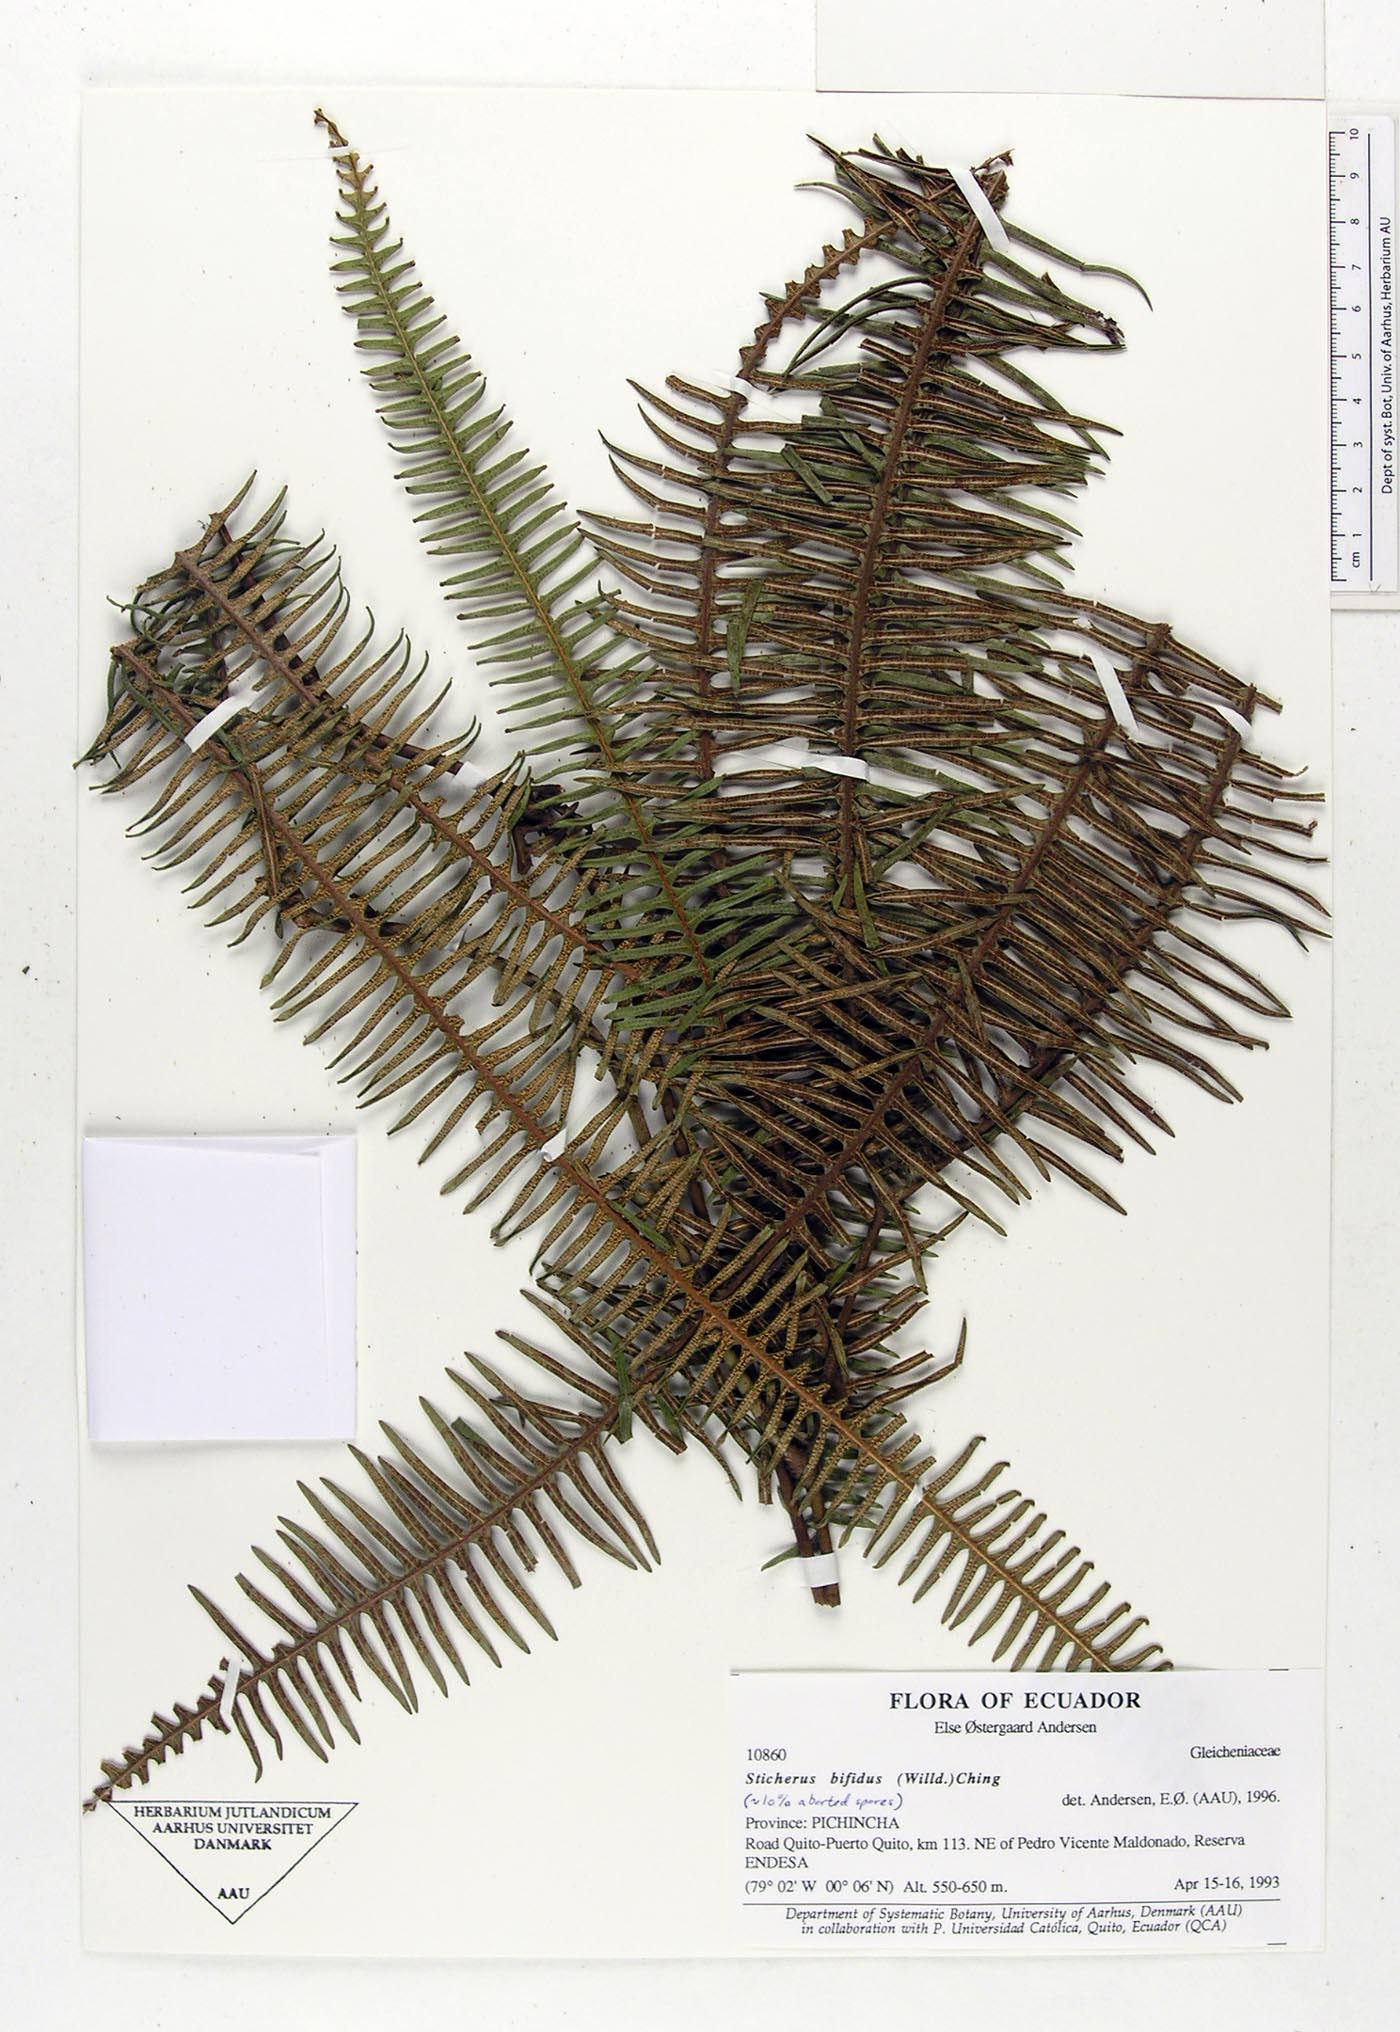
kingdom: Plantae
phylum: Tracheophyta
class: Polypodiopsida
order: Gleicheniales
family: Gleicheniaceae
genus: Sticherus
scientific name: Sticherus bifidus
